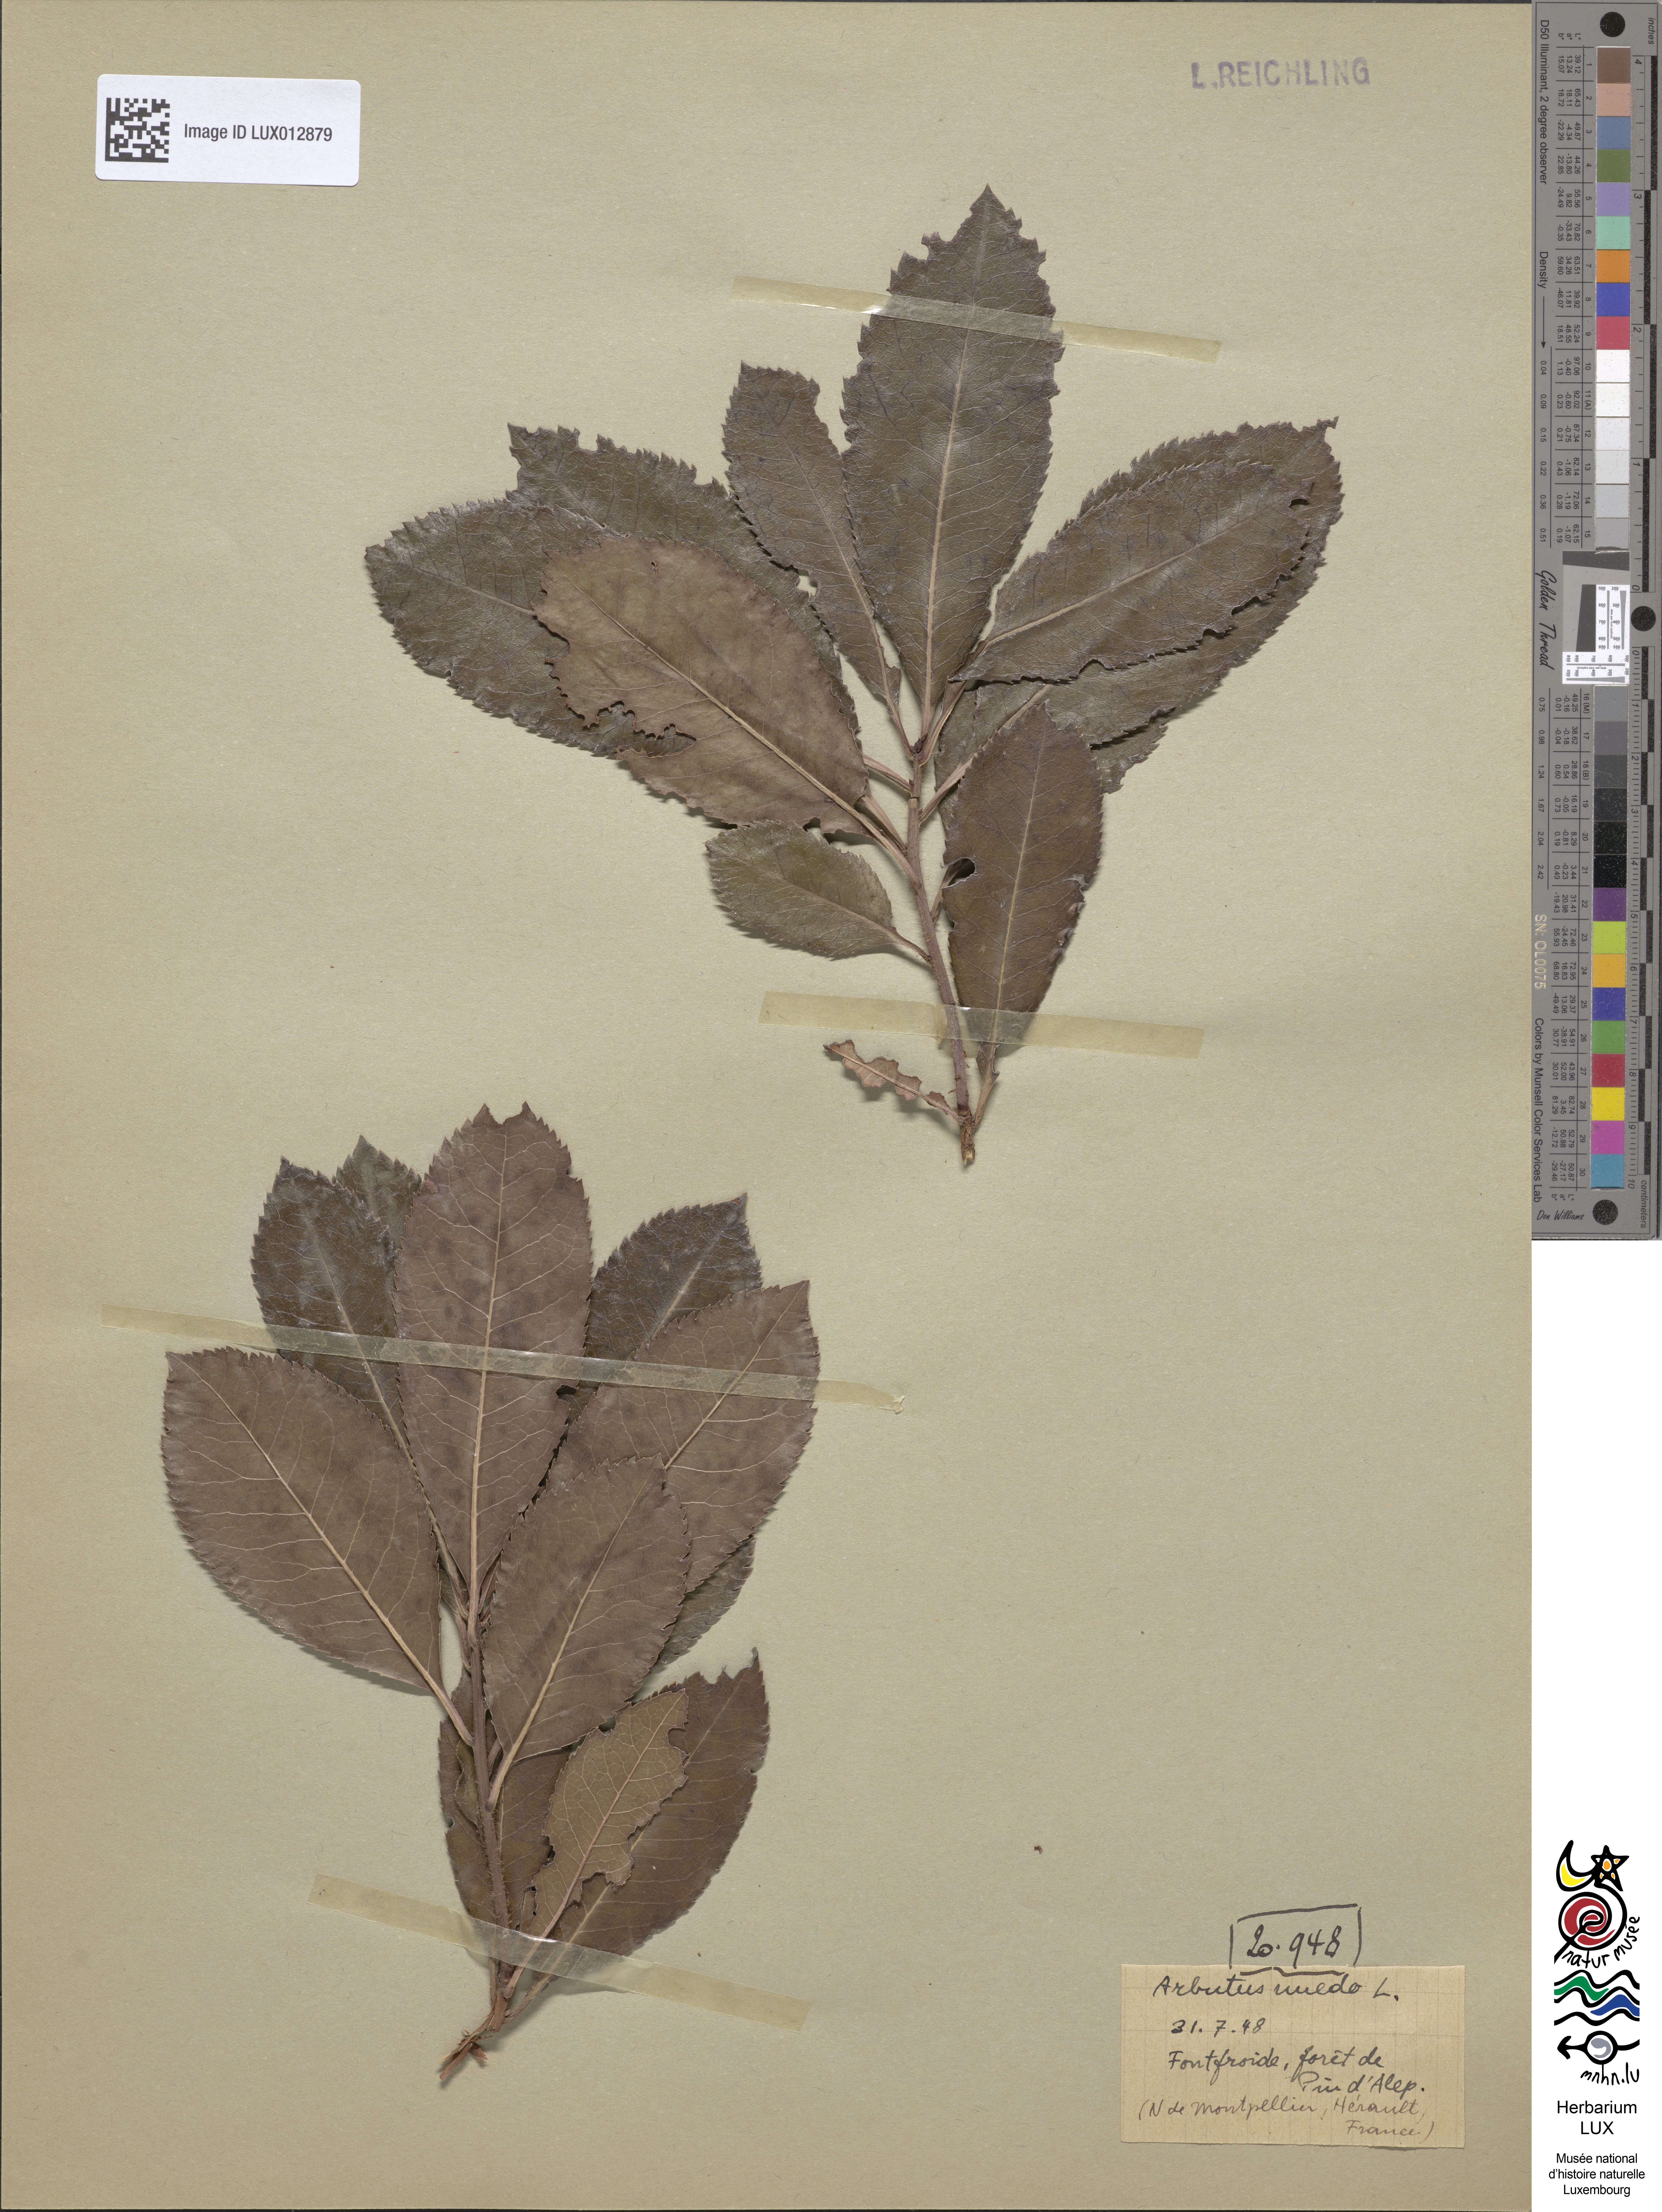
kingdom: Plantae
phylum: Tracheophyta
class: Magnoliopsida
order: Ericales
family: Ericaceae
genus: Arbutus
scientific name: Arbutus unedo
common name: Strawberry-tree
